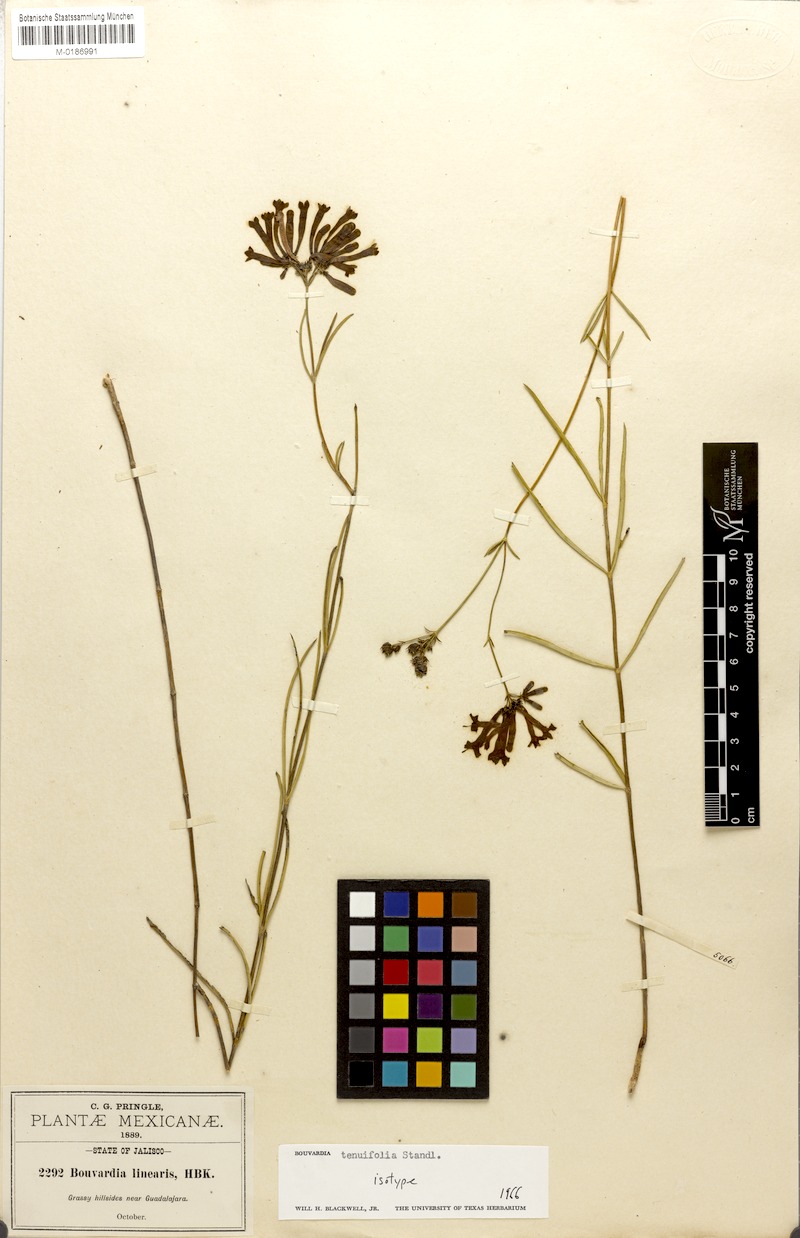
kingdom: Plantae
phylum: Tracheophyta
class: Magnoliopsida
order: Gentianales
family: Rubiaceae
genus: Bouvardia
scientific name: Bouvardia tenuifolia
